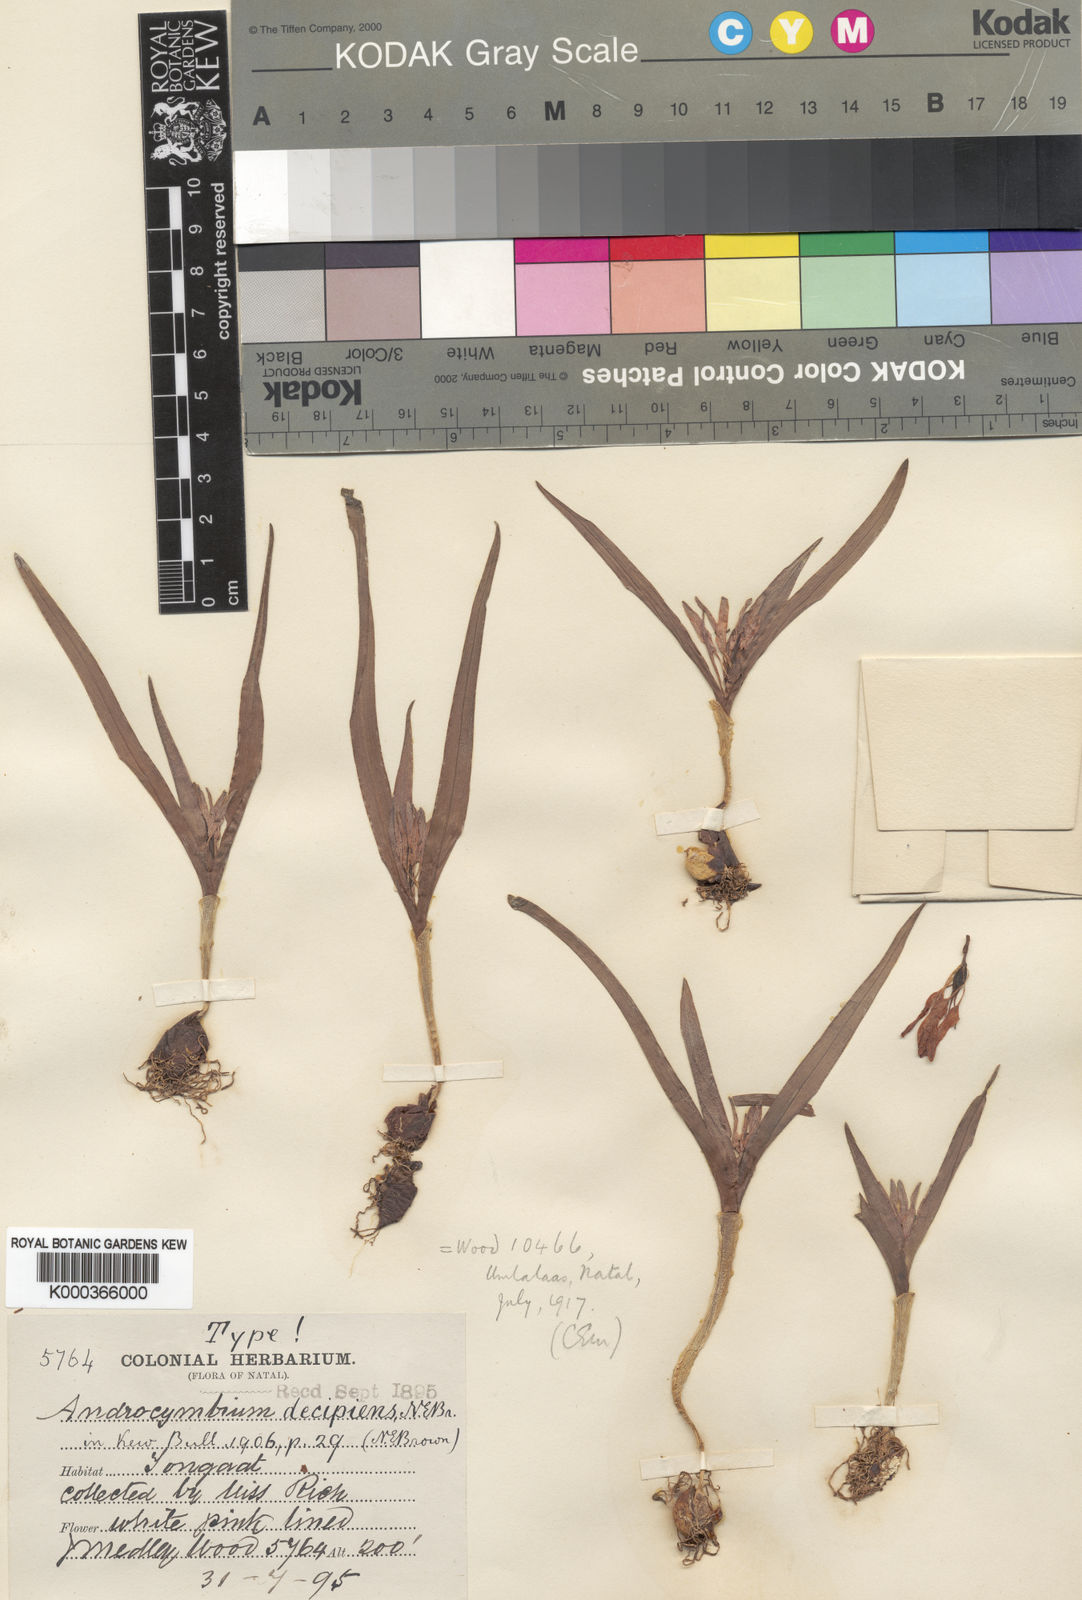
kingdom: Plantae
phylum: Tracheophyta
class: Liliopsida
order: Liliales
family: Colchicaceae
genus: Colchicum
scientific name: Colchicum decipiens
